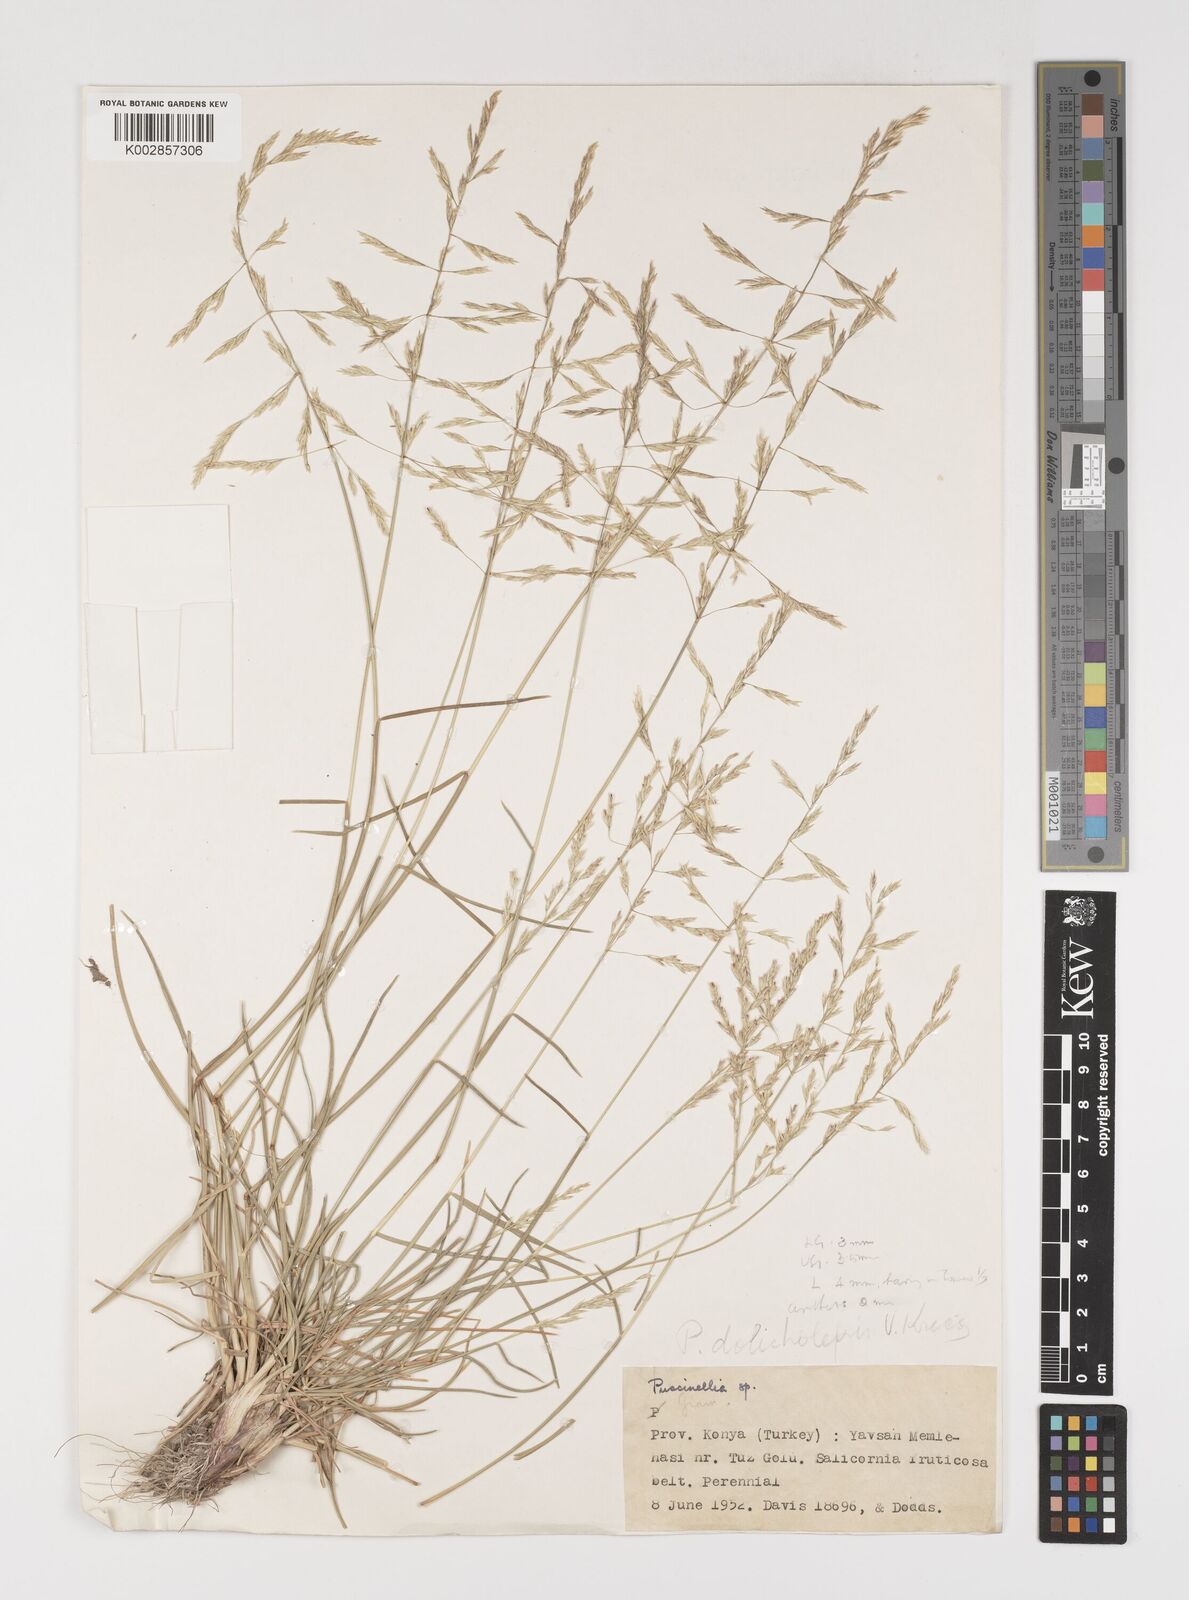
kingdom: Plantae
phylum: Tracheophyta
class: Liliopsida
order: Poales
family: Poaceae
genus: Puccinellia
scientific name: Puccinellia
